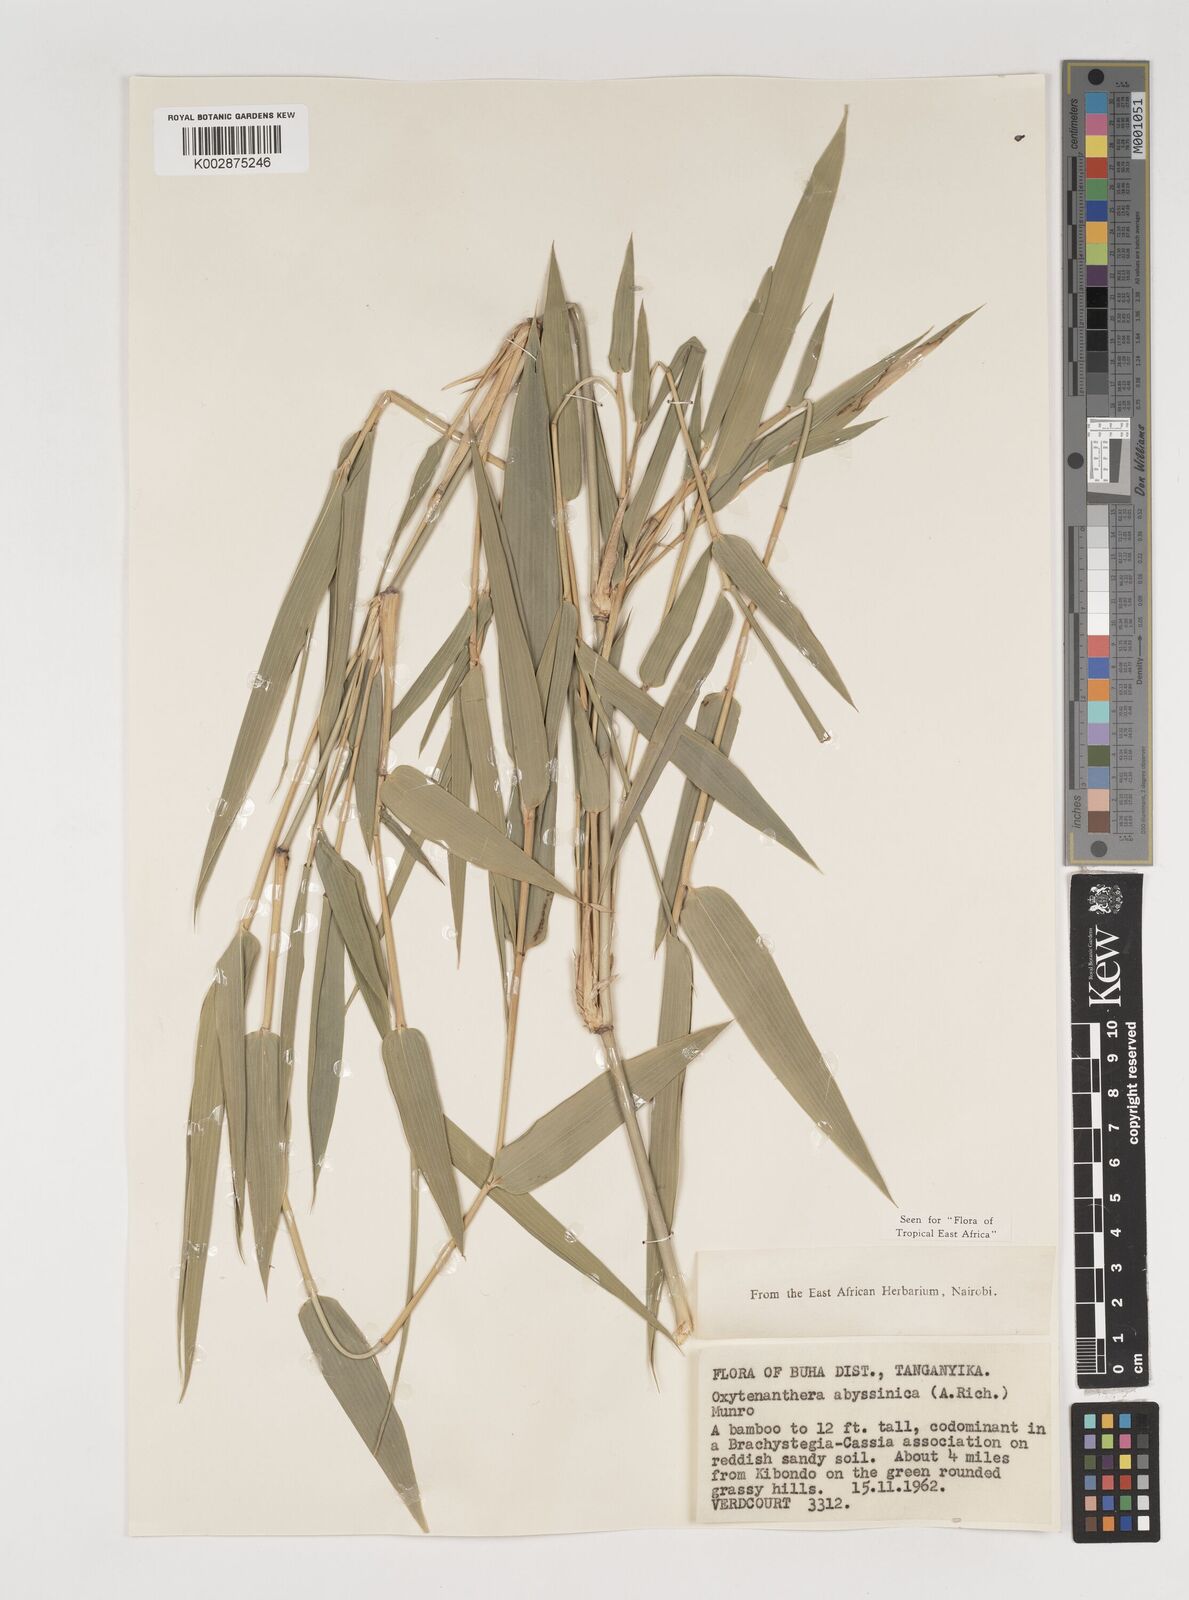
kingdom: Plantae
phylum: Tracheophyta
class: Liliopsida
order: Poales
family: Poaceae
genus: Oxytenanthera
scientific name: Oxytenanthera abyssinica
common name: Wine bamboo
